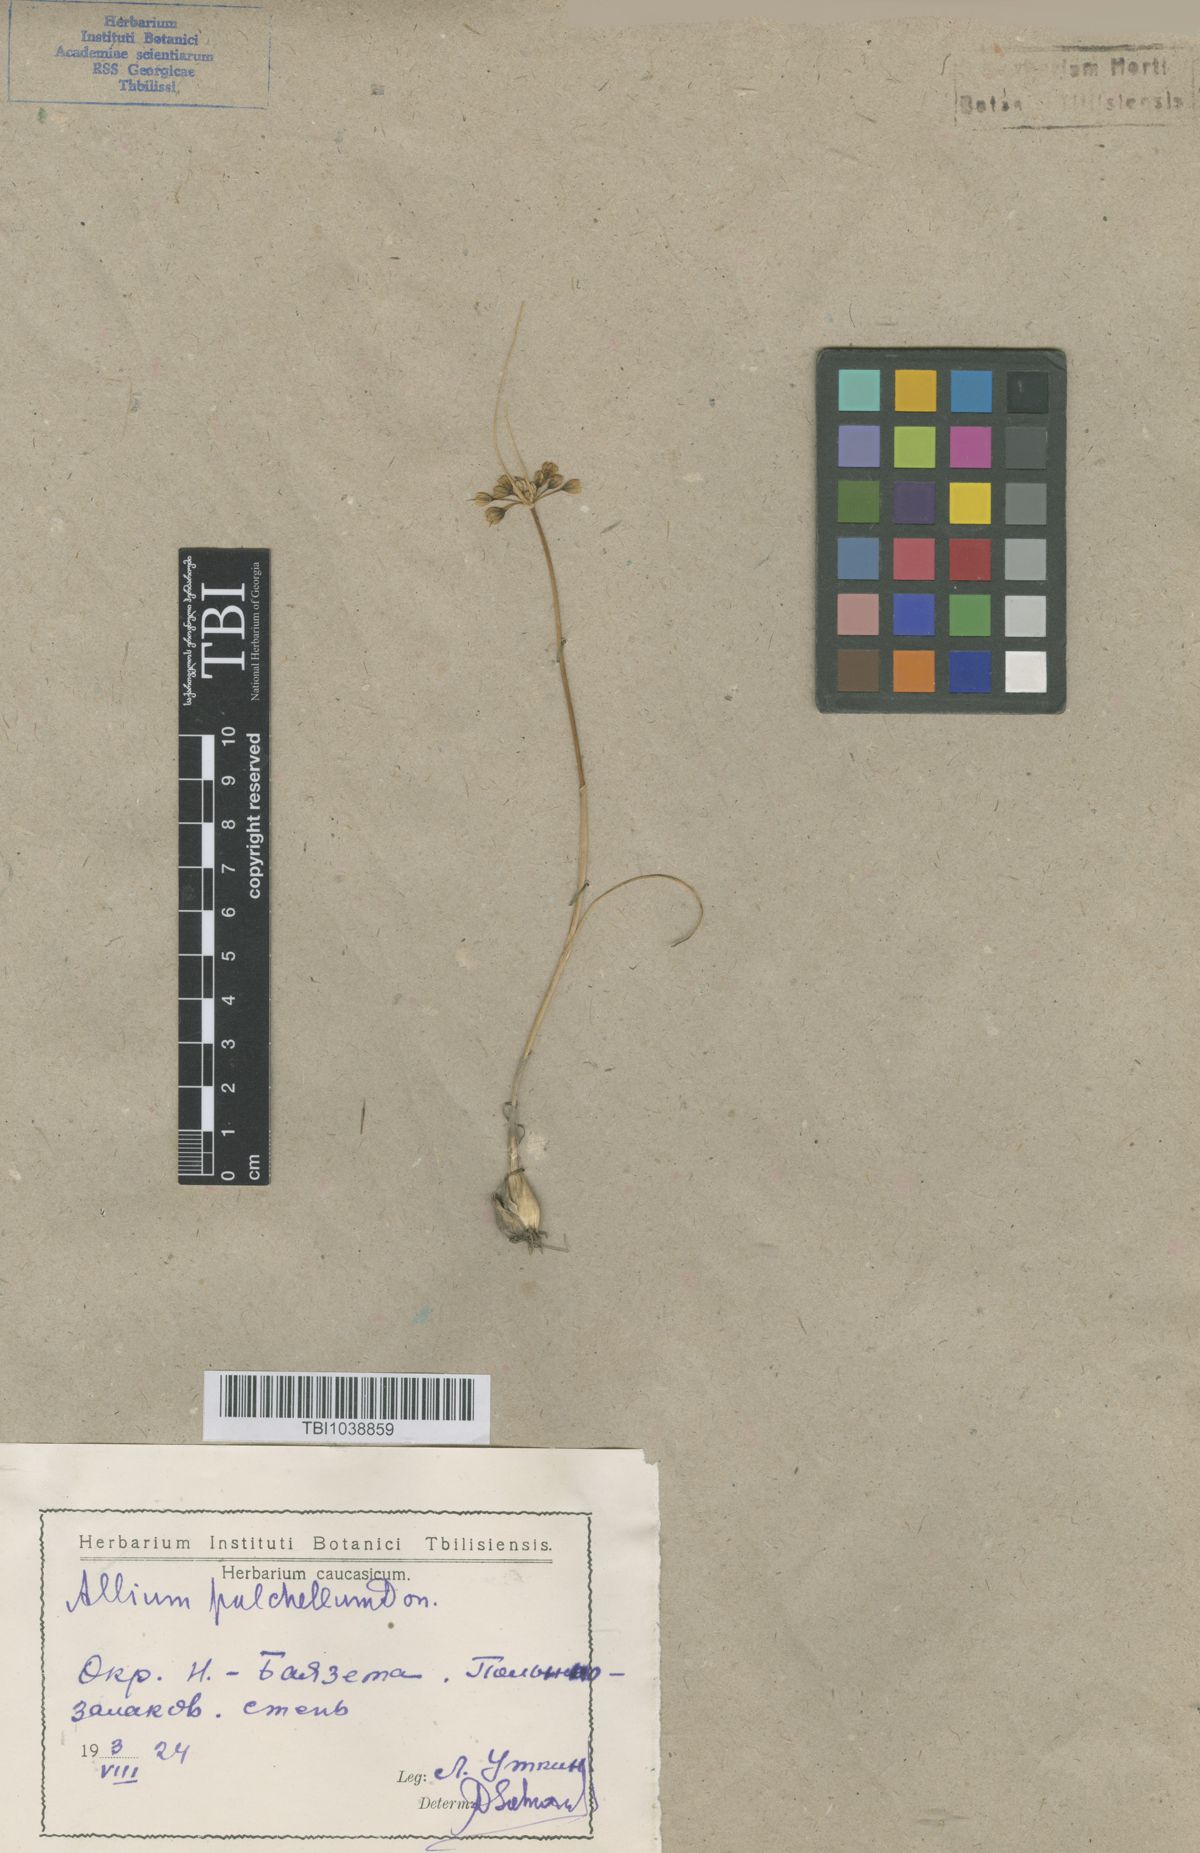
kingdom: Plantae
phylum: Tracheophyta
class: Liliopsida
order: Asparagales
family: Amaryllidaceae
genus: Allium
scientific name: Allium flavum
